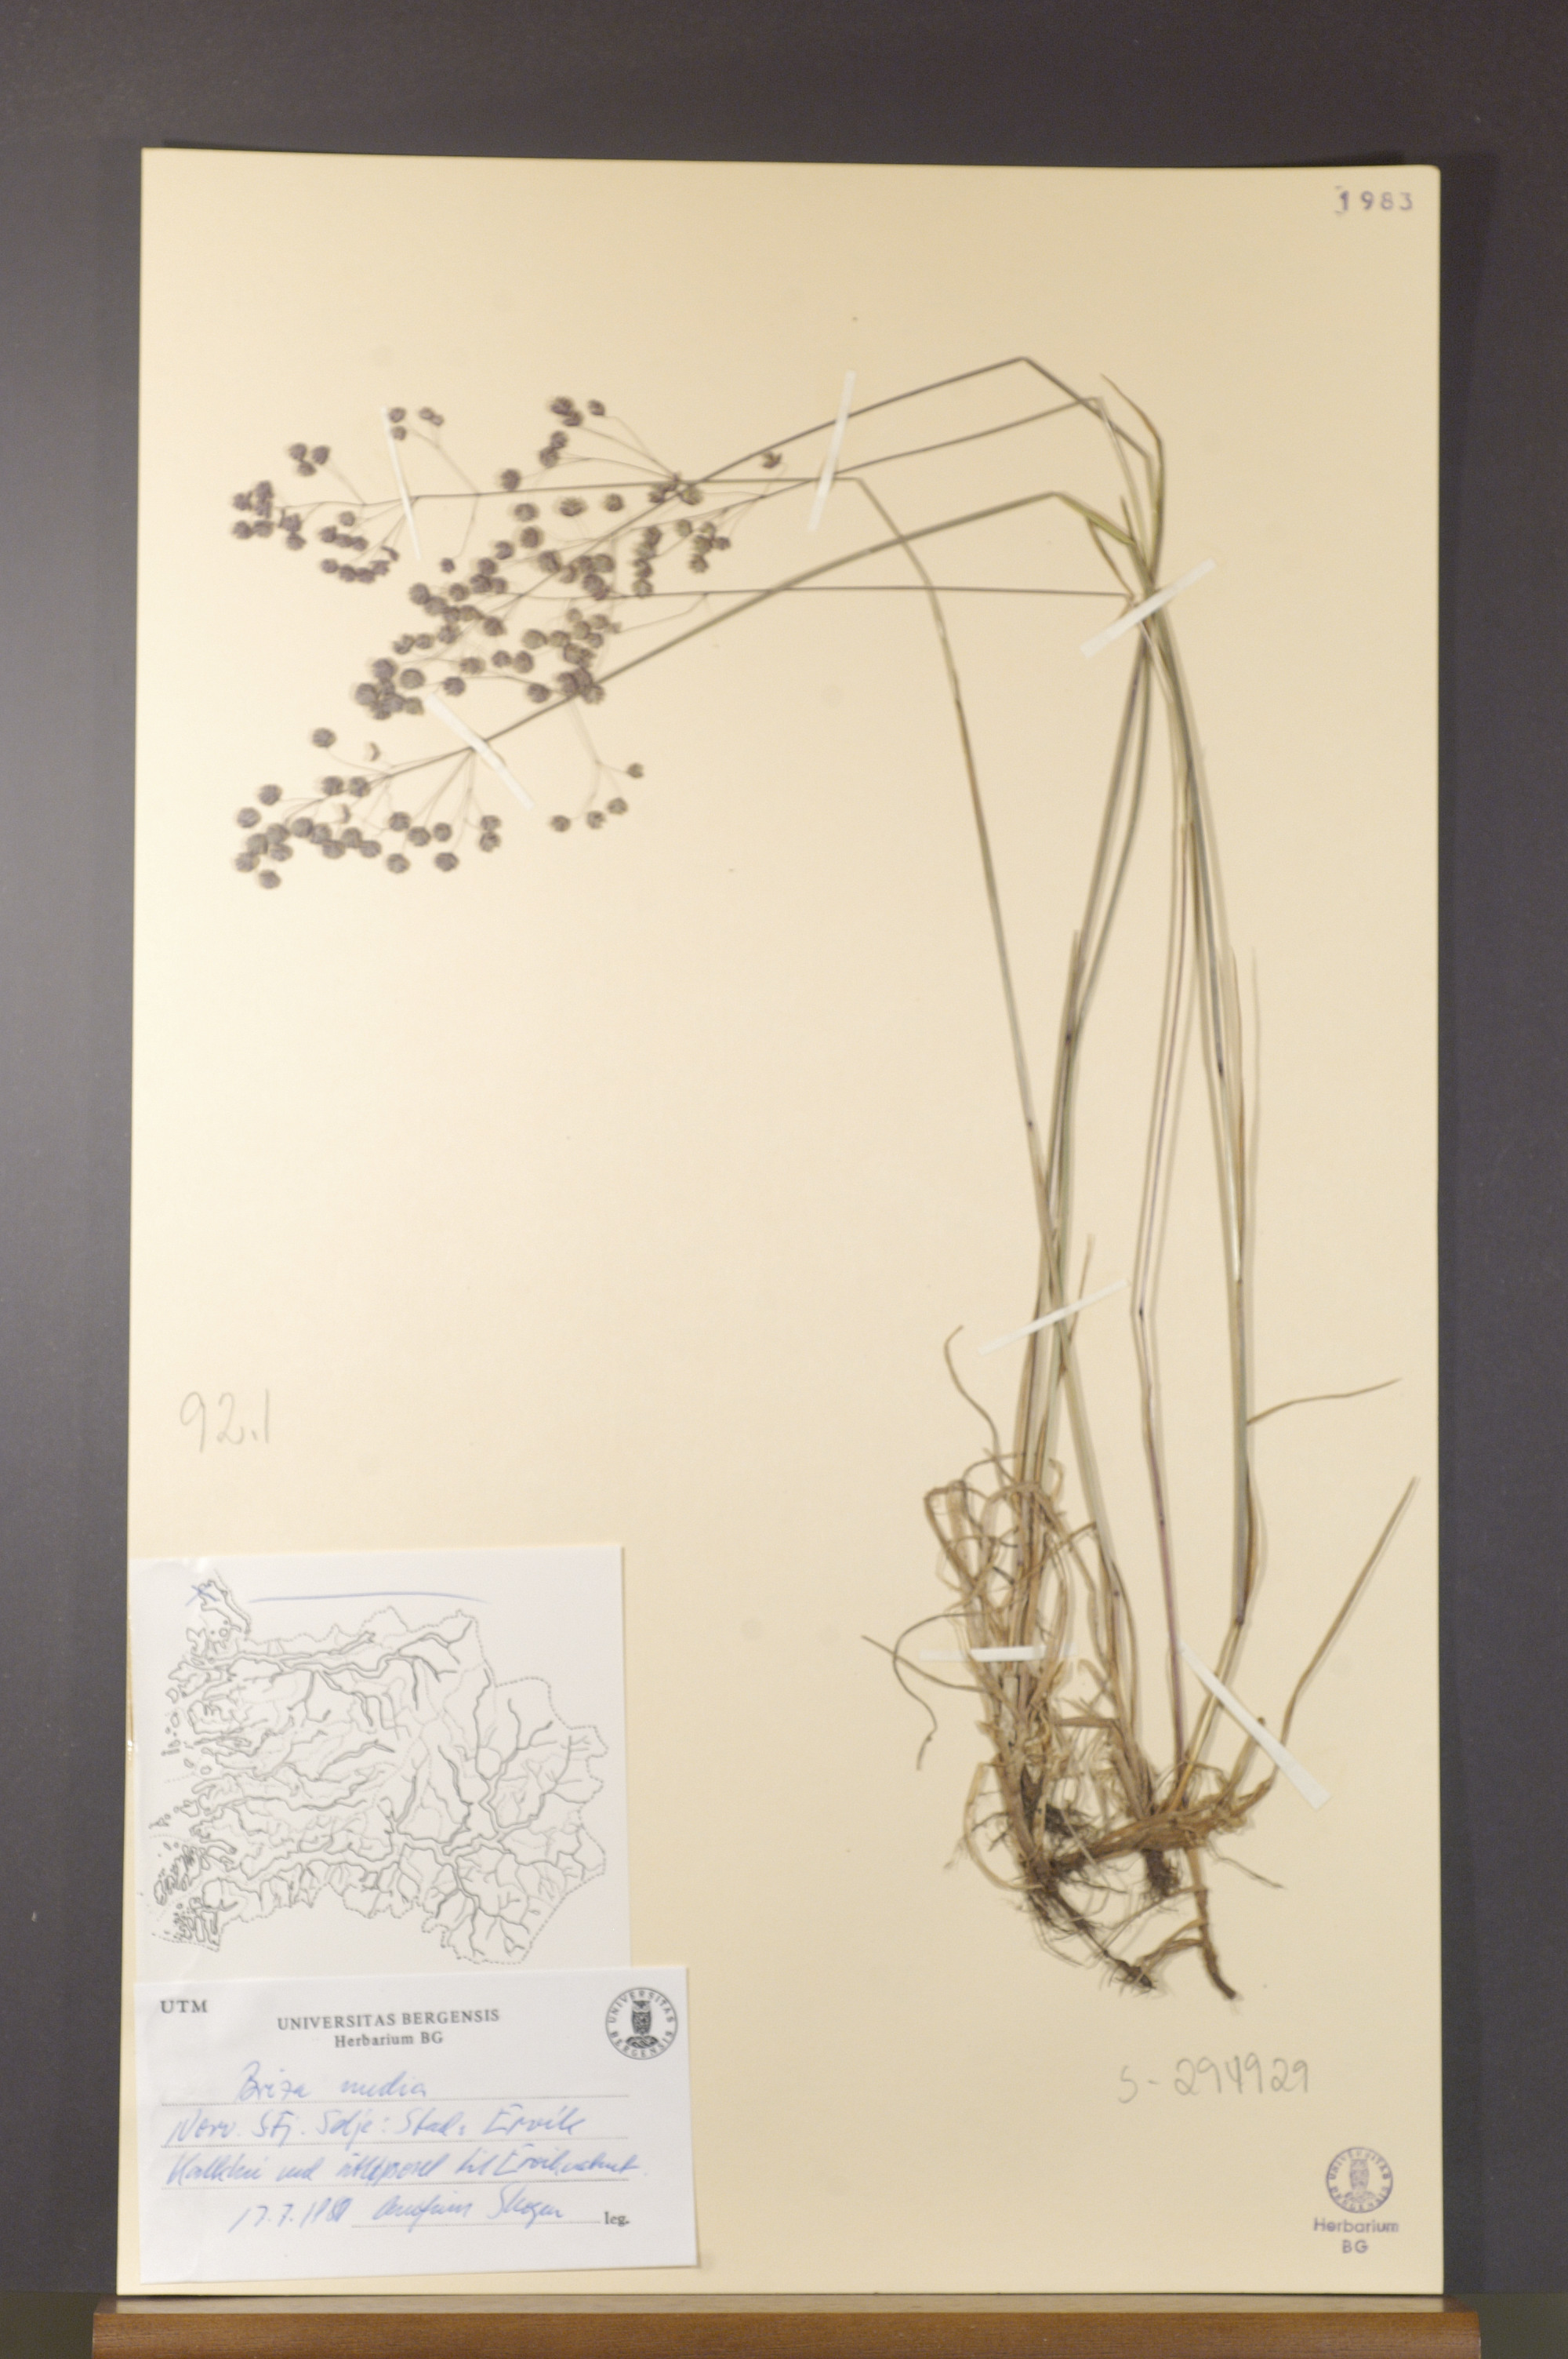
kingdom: Plantae
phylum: Tracheophyta
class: Liliopsida
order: Poales
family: Poaceae
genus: Briza
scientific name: Briza media
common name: Quaking grass
